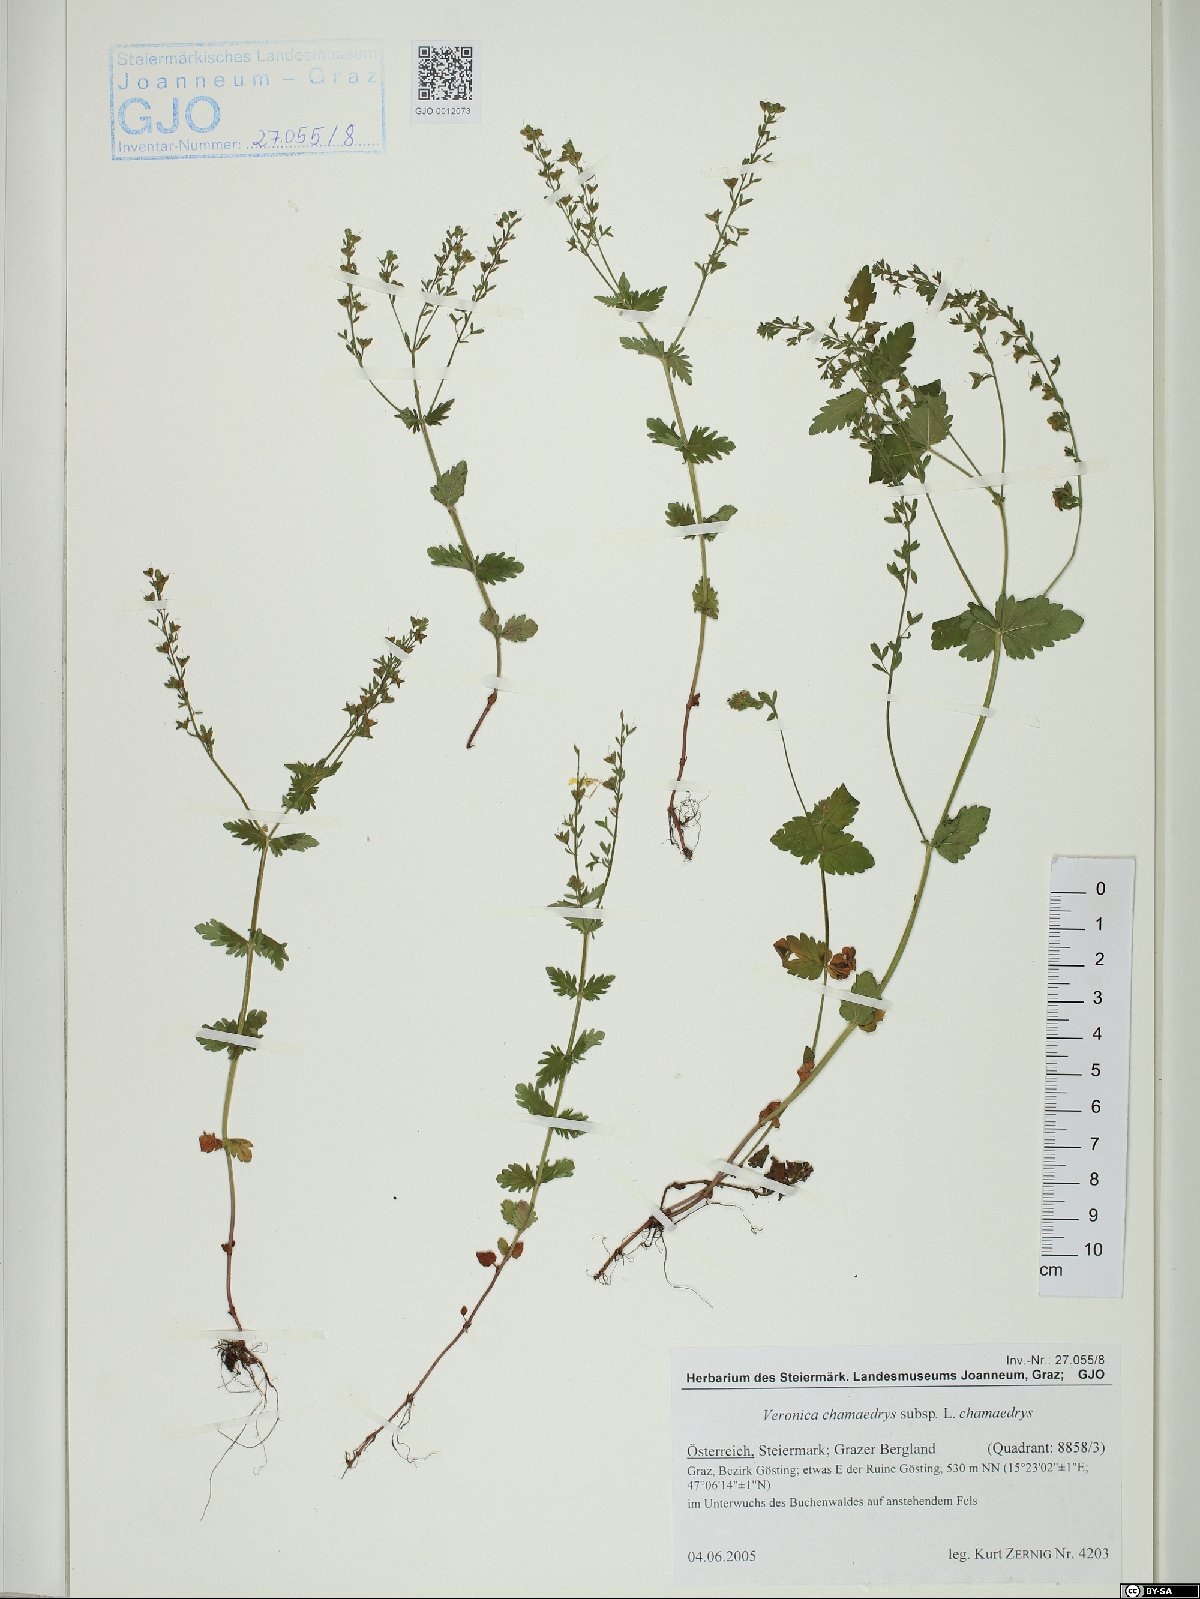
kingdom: Plantae
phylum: Tracheophyta
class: Magnoliopsida
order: Lamiales
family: Plantaginaceae
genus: Veronica
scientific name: Veronica chamaedrys
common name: Germander speedwell
